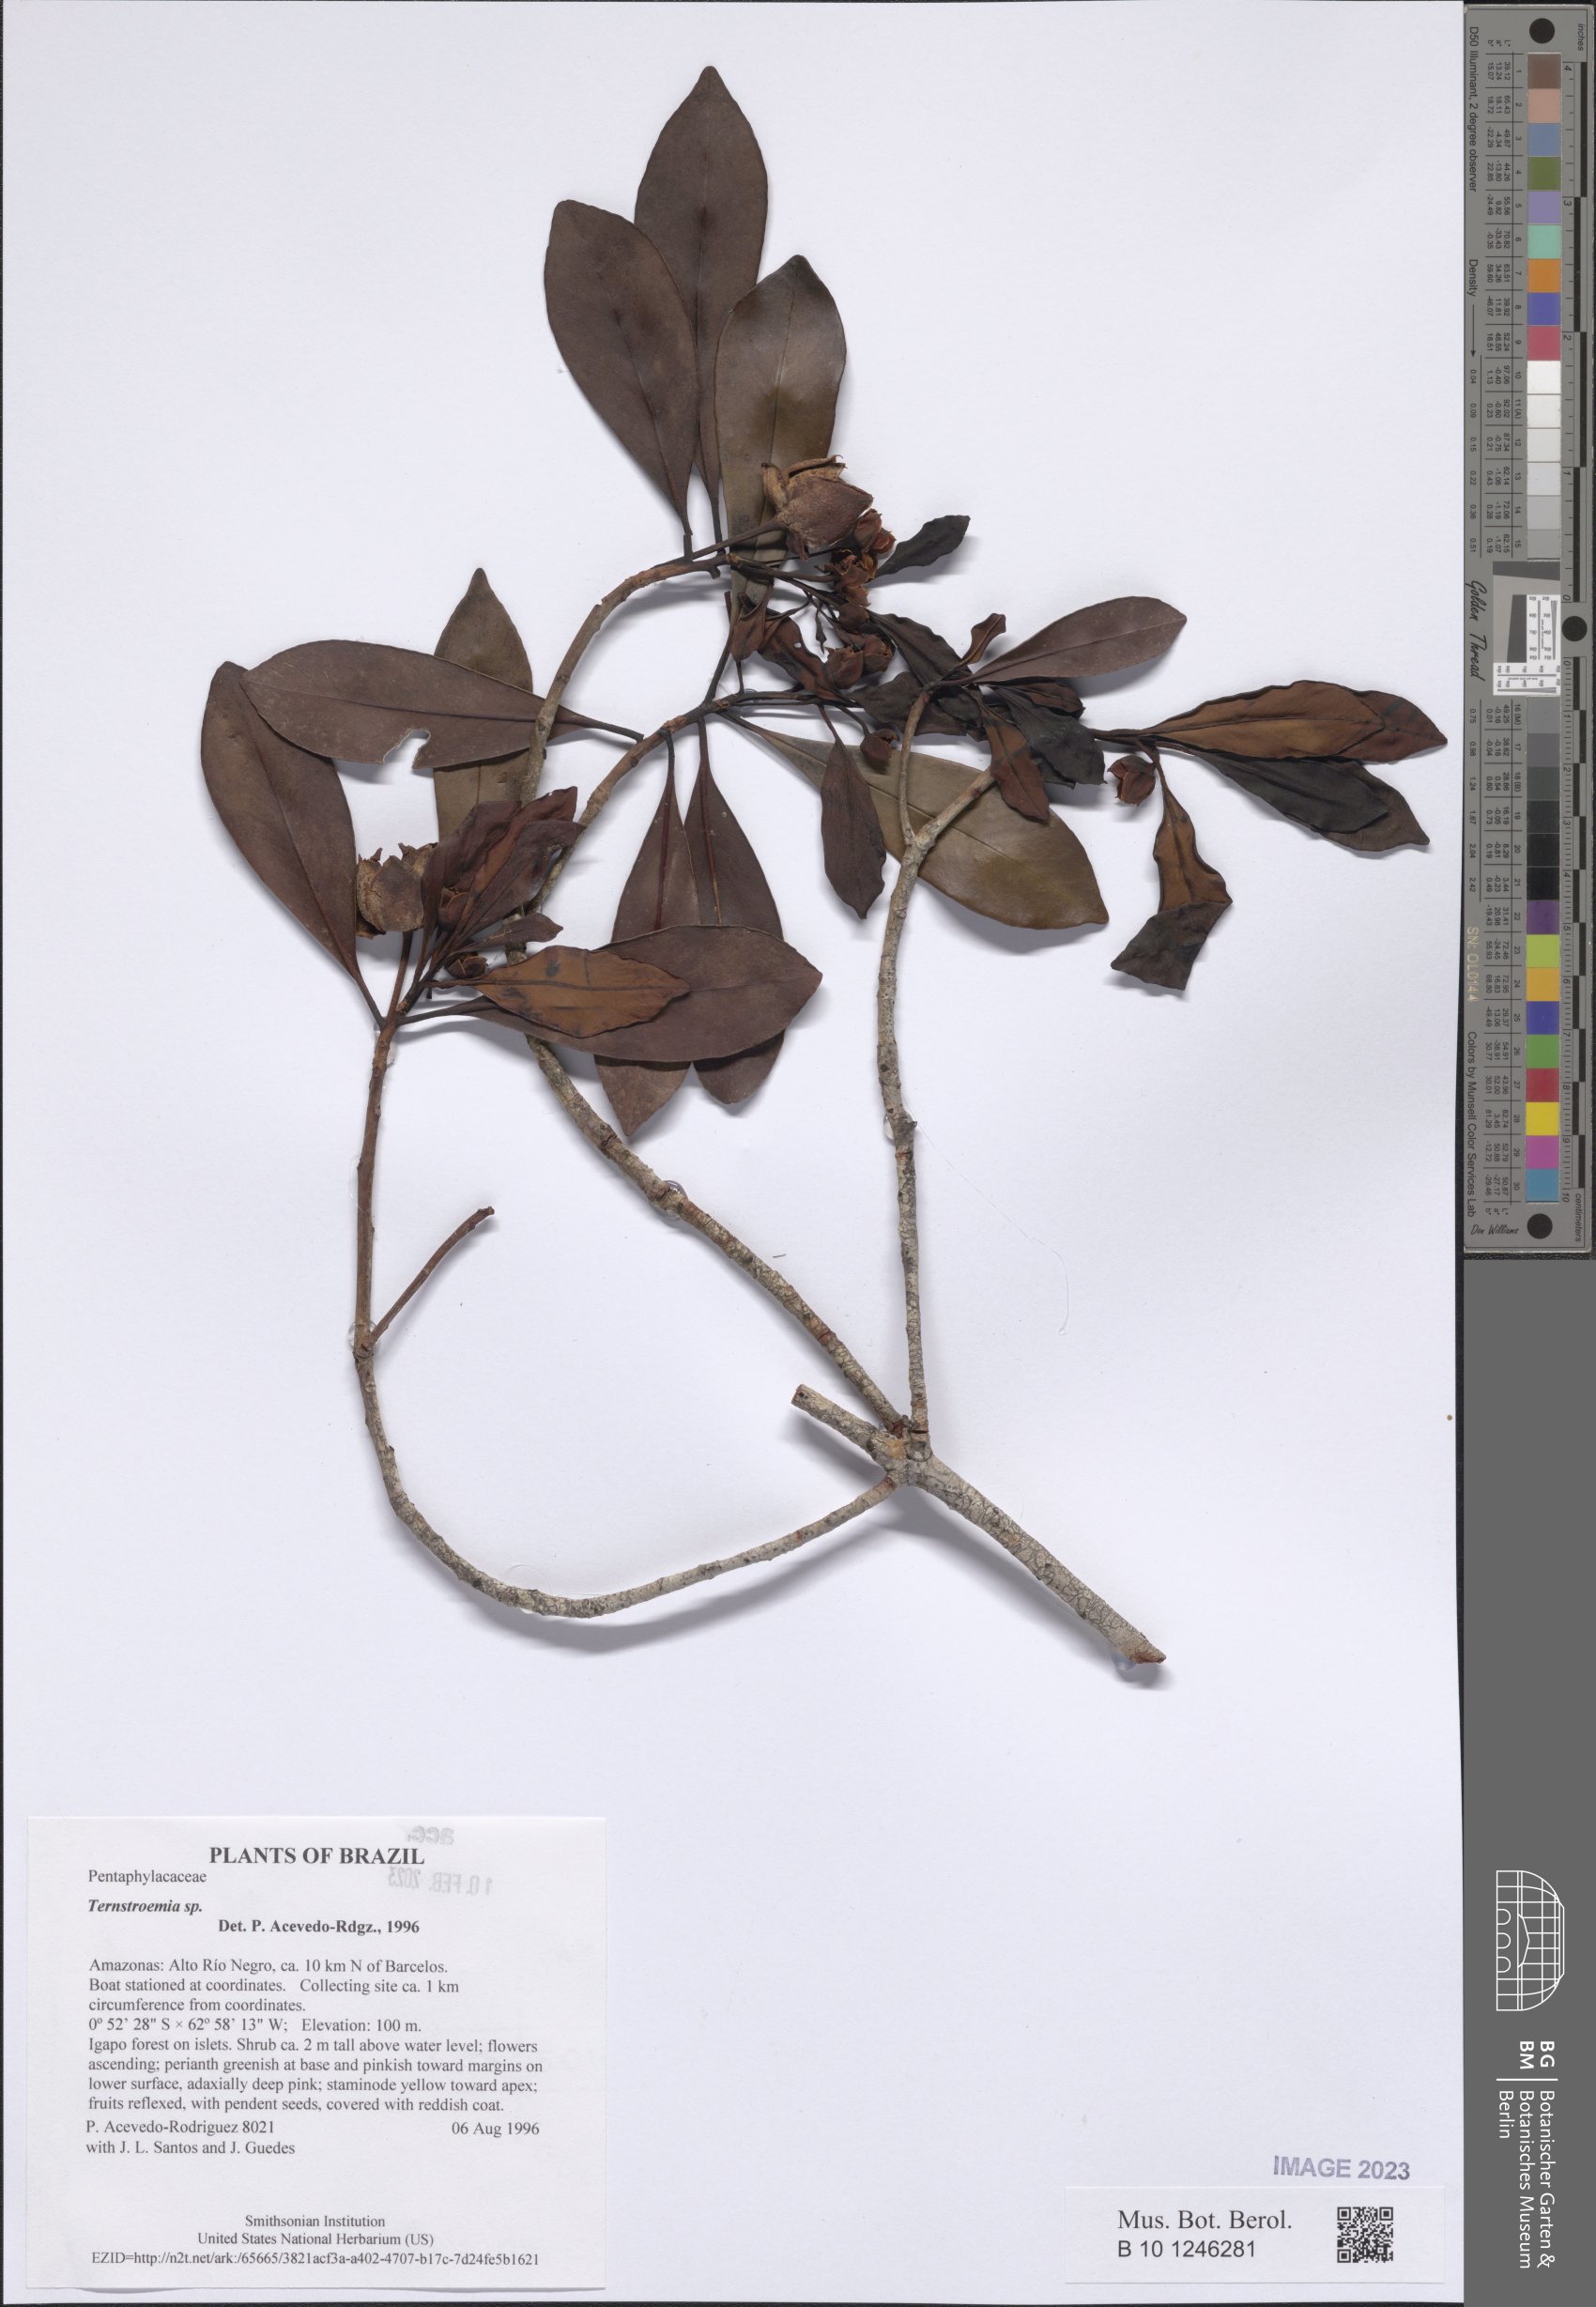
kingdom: Plantae
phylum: Tracheophyta
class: Magnoliopsida
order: Ericales
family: Pentaphylacaceae
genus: Ternstroemia
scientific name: Ternstroemia
